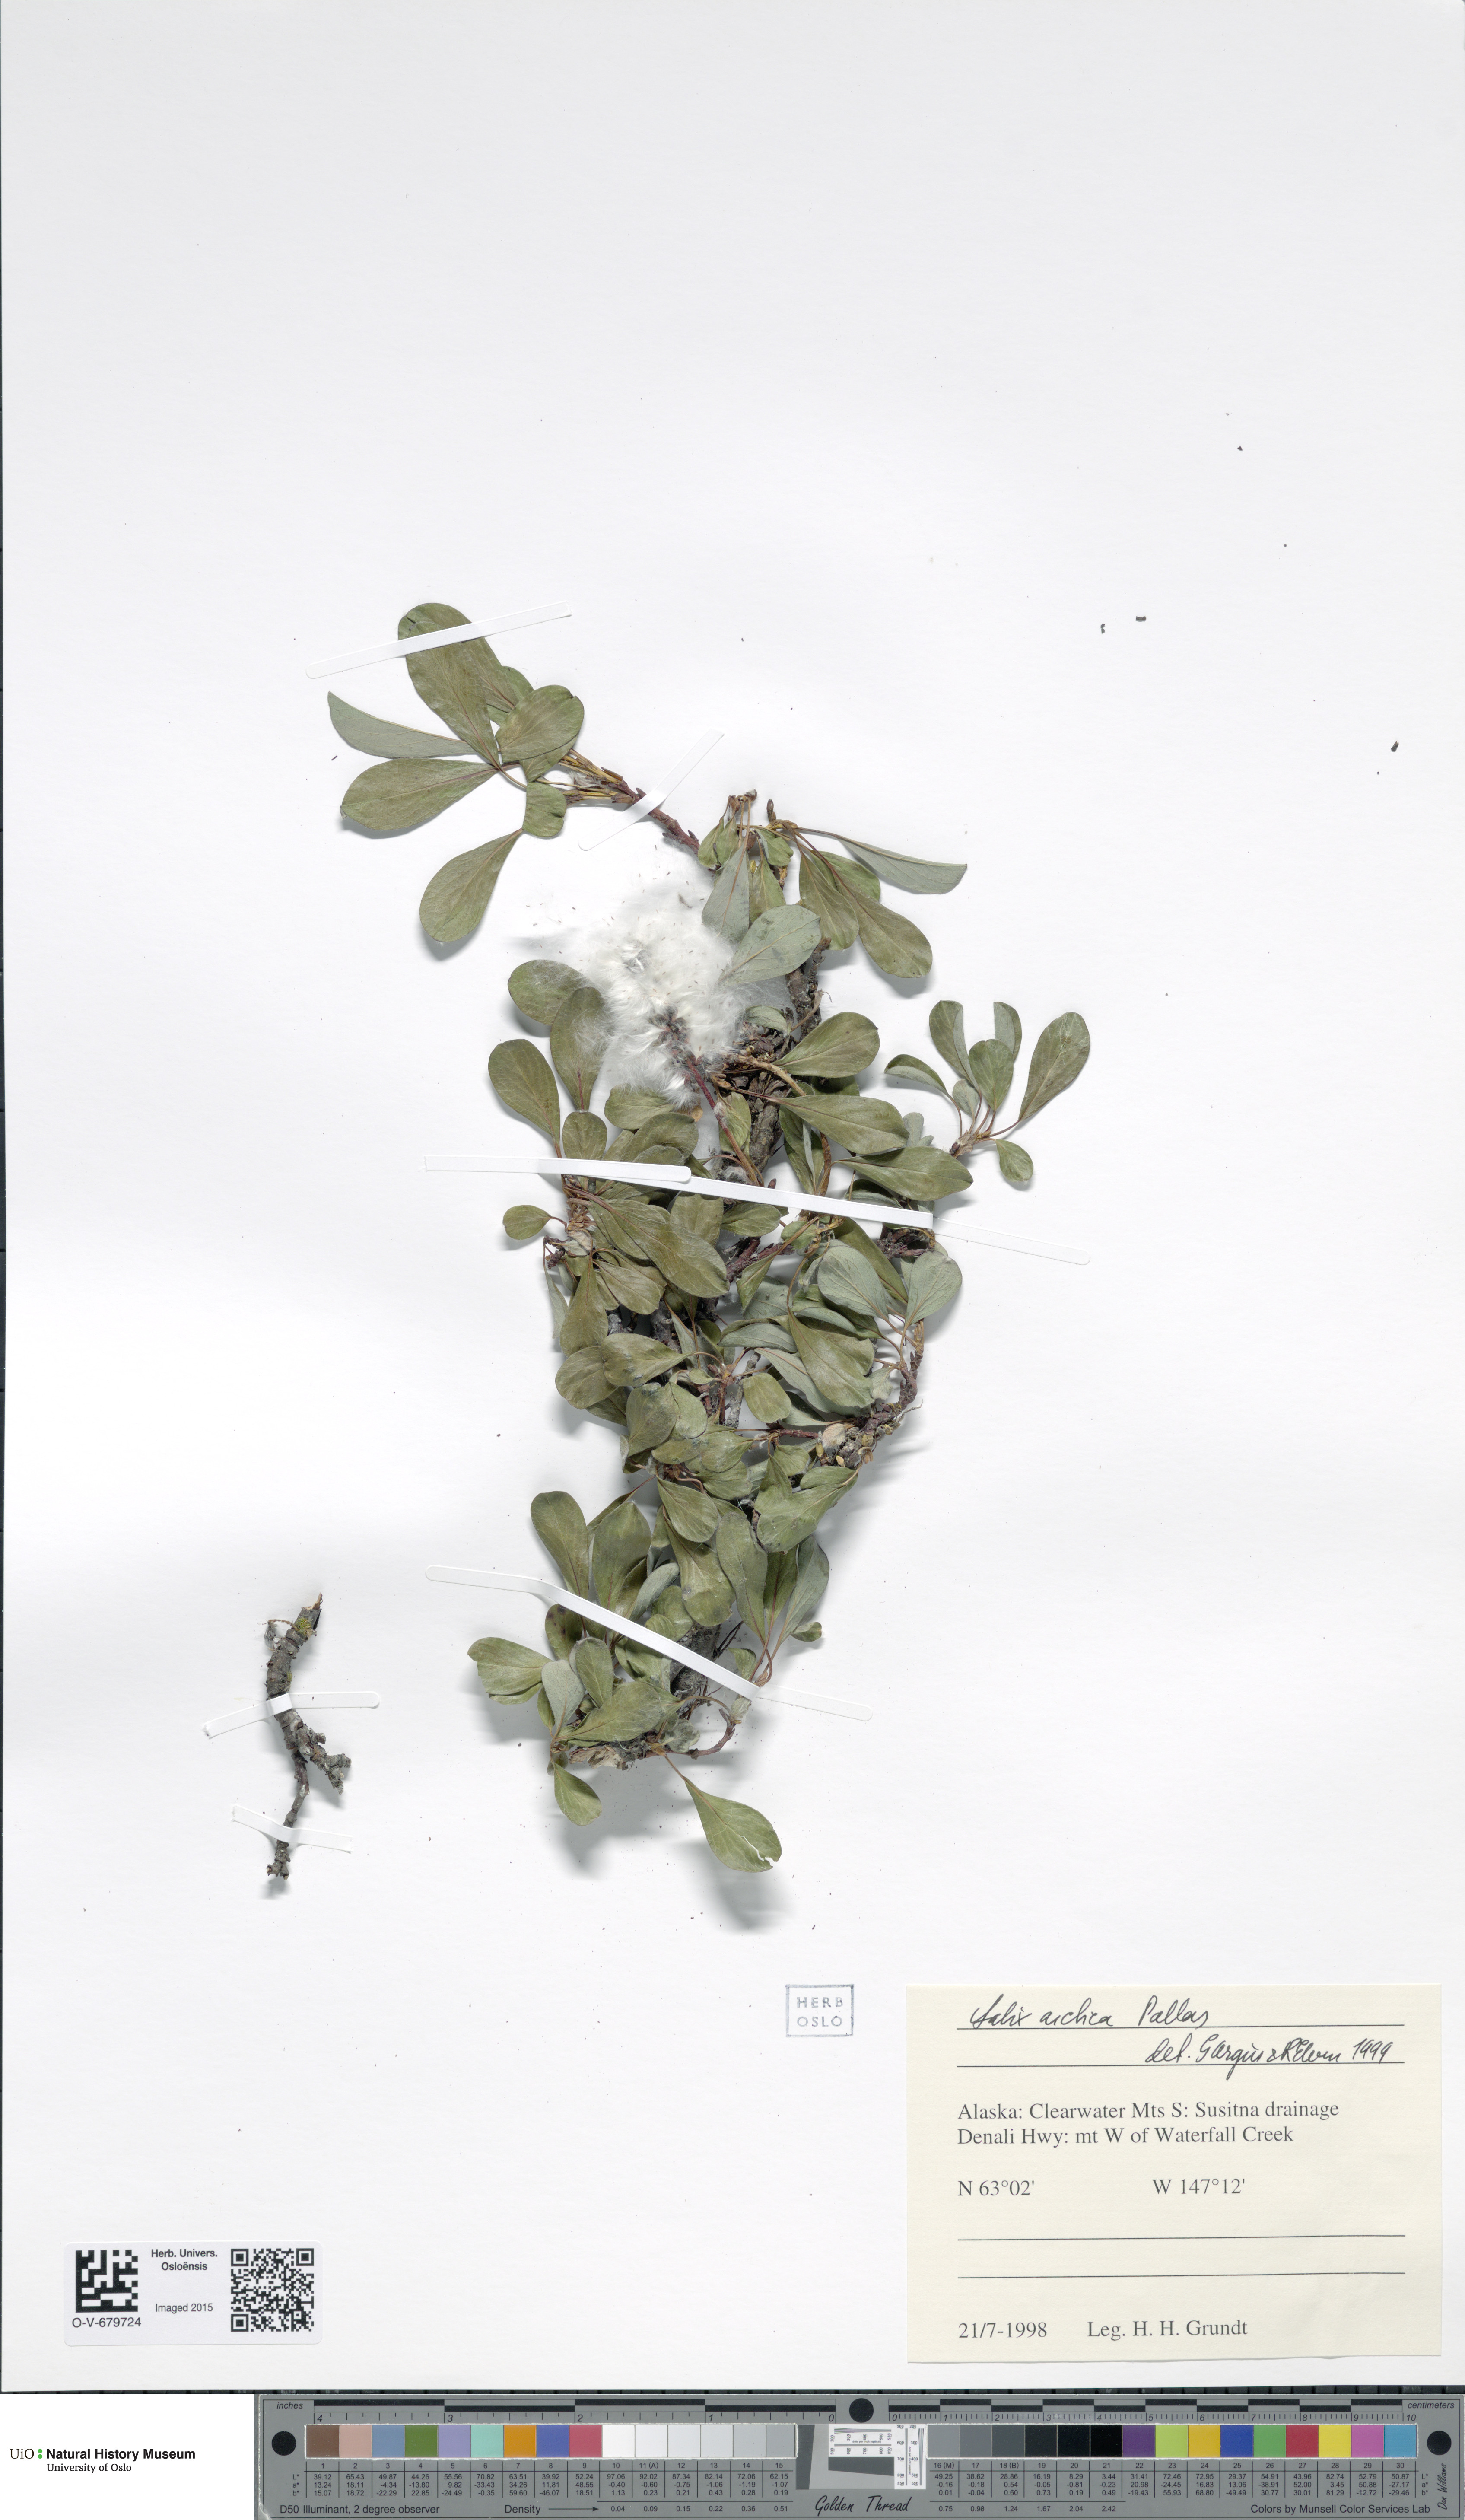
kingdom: Plantae
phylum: Tracheophyta
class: Magnoliopsida
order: Malpighiales
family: Salicaceae
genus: Salix
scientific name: Salix arctica
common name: Arctic willow
